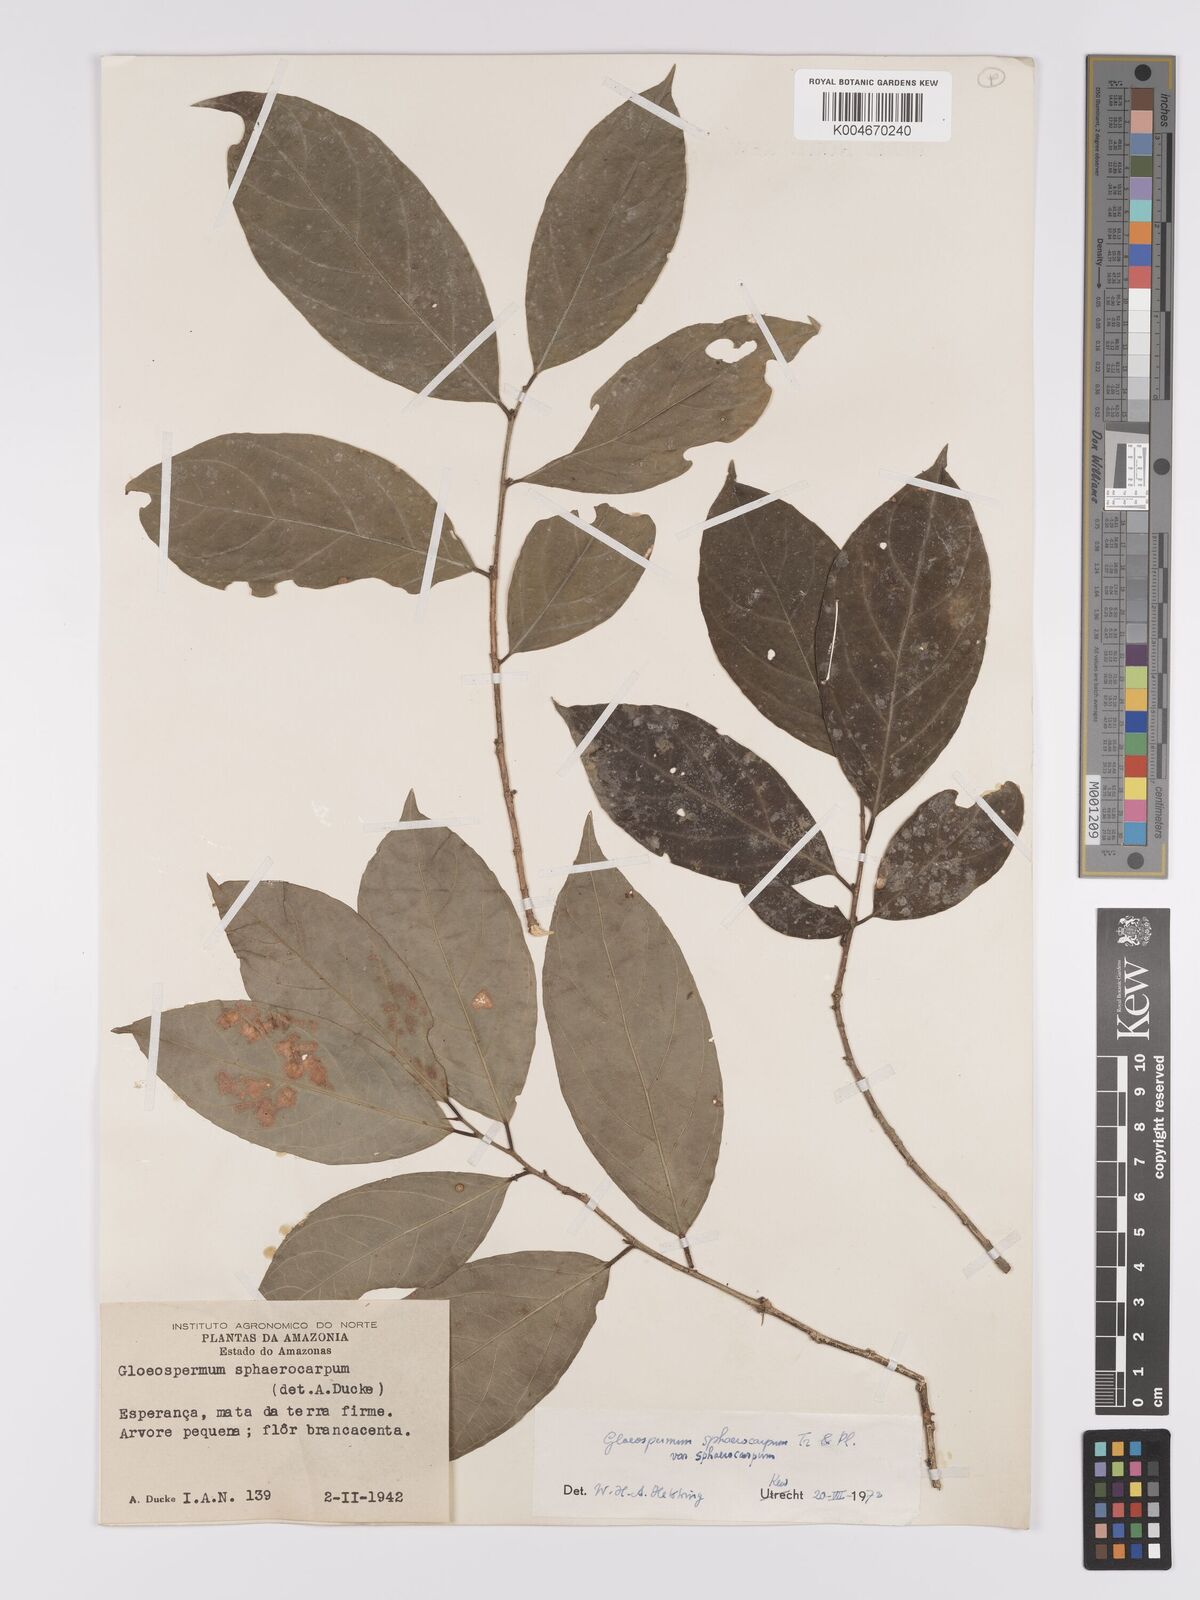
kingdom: Plantae
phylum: Tracheophyta
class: Magnoliopsida
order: Malpighiales
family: Violaceae
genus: Gloeospermum
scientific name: Gloeospermum sphaerocarpum
